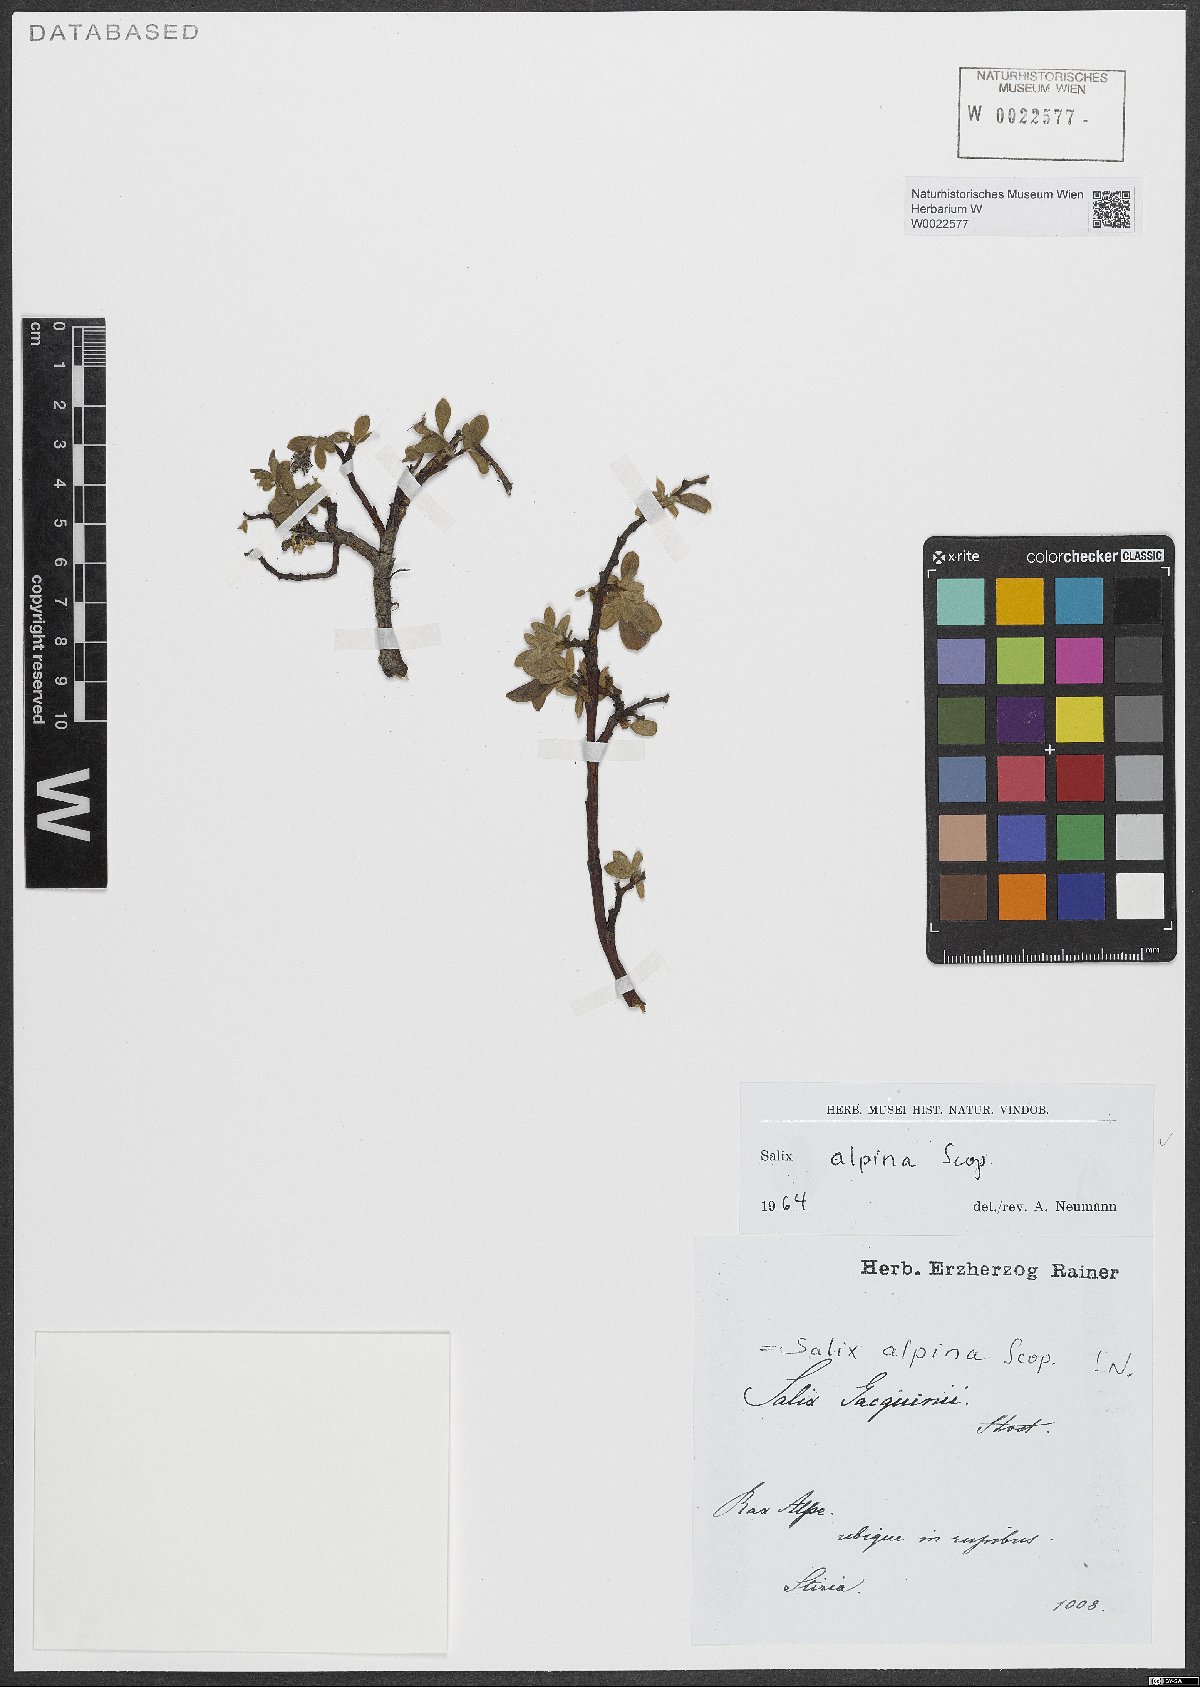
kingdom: Plantae
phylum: Tracheophyta
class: Magnoliopsida
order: Malpighiales
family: Salicaceae
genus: Salix
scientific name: Salix alpina
